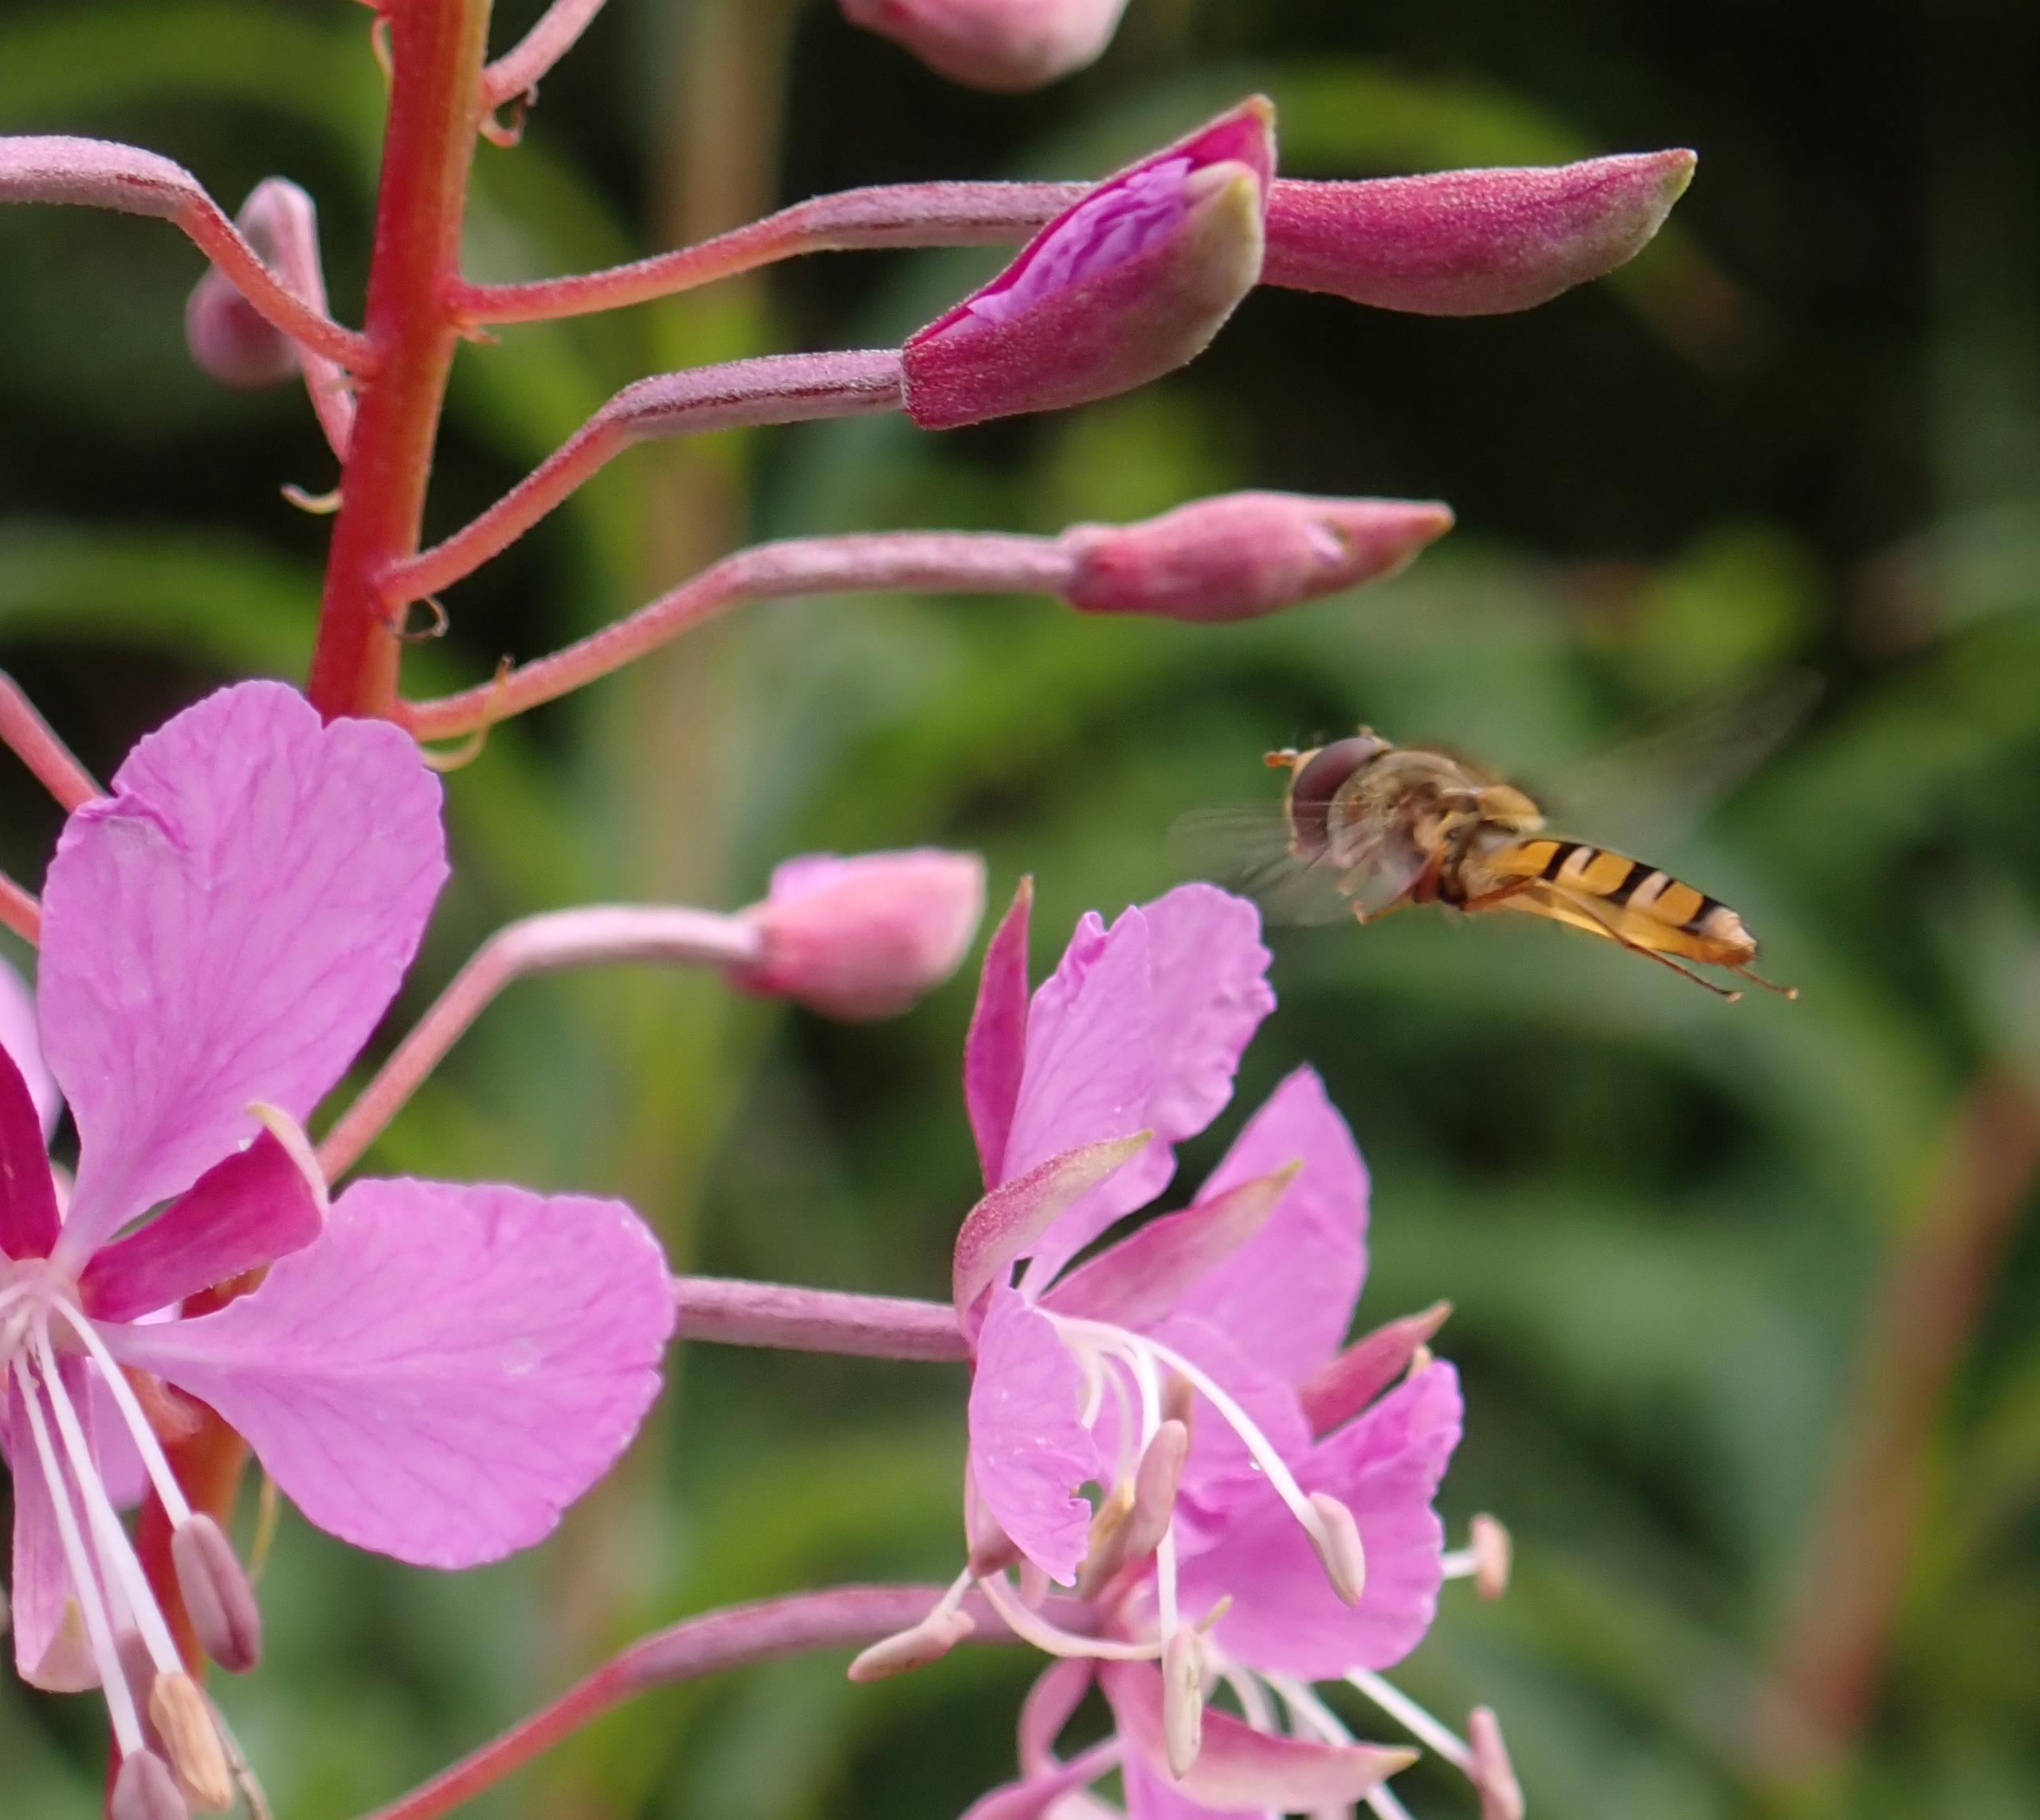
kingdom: Animalia
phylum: Arthropoda
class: Insecta
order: Diptera
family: Syrphidae
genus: Episyrphus
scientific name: Episyrphus balteatus
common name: Dobbeltbåndet svirreflue
